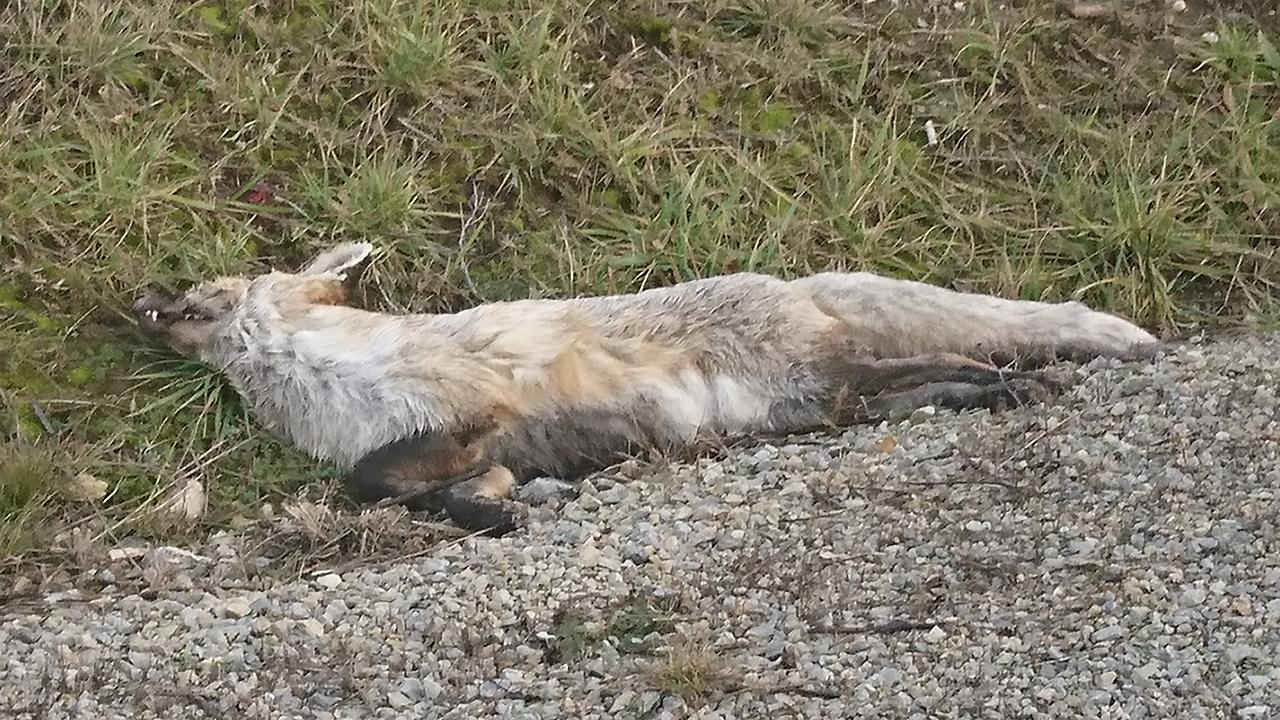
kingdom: Animalia
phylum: Chordata
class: Mammalia
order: Carnivora
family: Canidae
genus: Vulpes
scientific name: Vulpes vulpes
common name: Red fox
